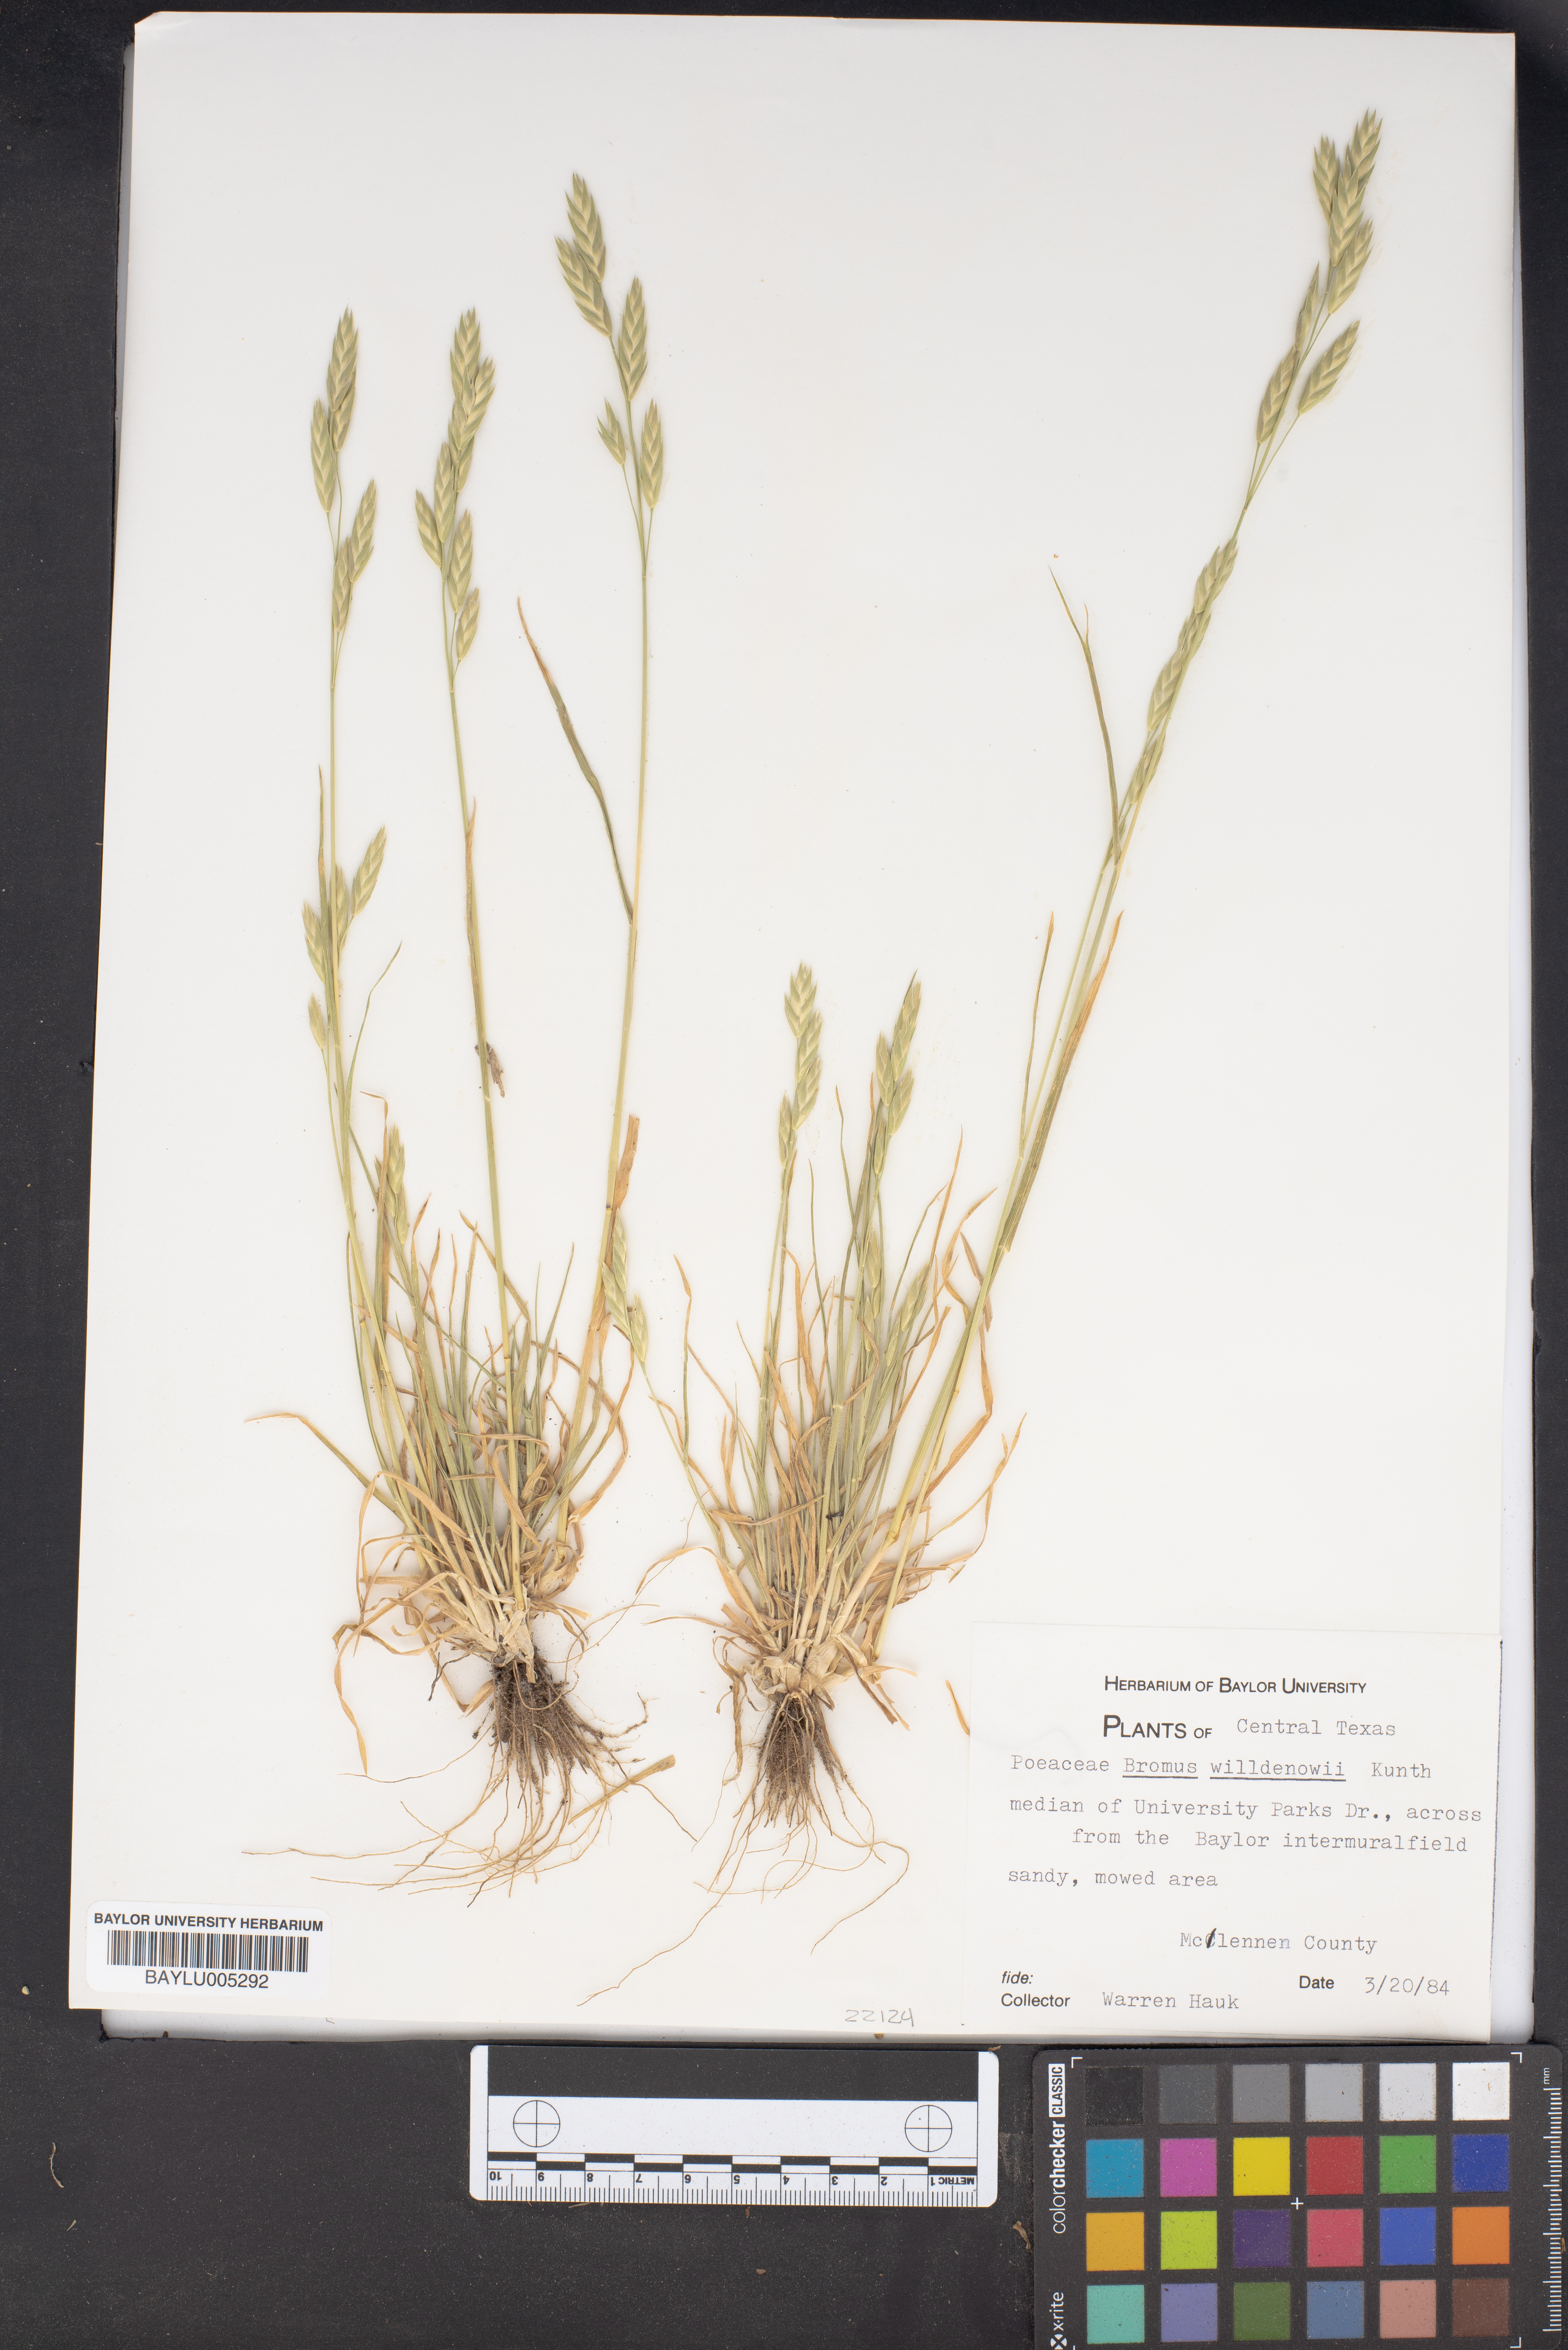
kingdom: Plantae
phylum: Tracheophyta
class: Liliopsida
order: Poales
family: Poaceae
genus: Bromus
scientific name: Bromus catharticus
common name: Rescuegrass
